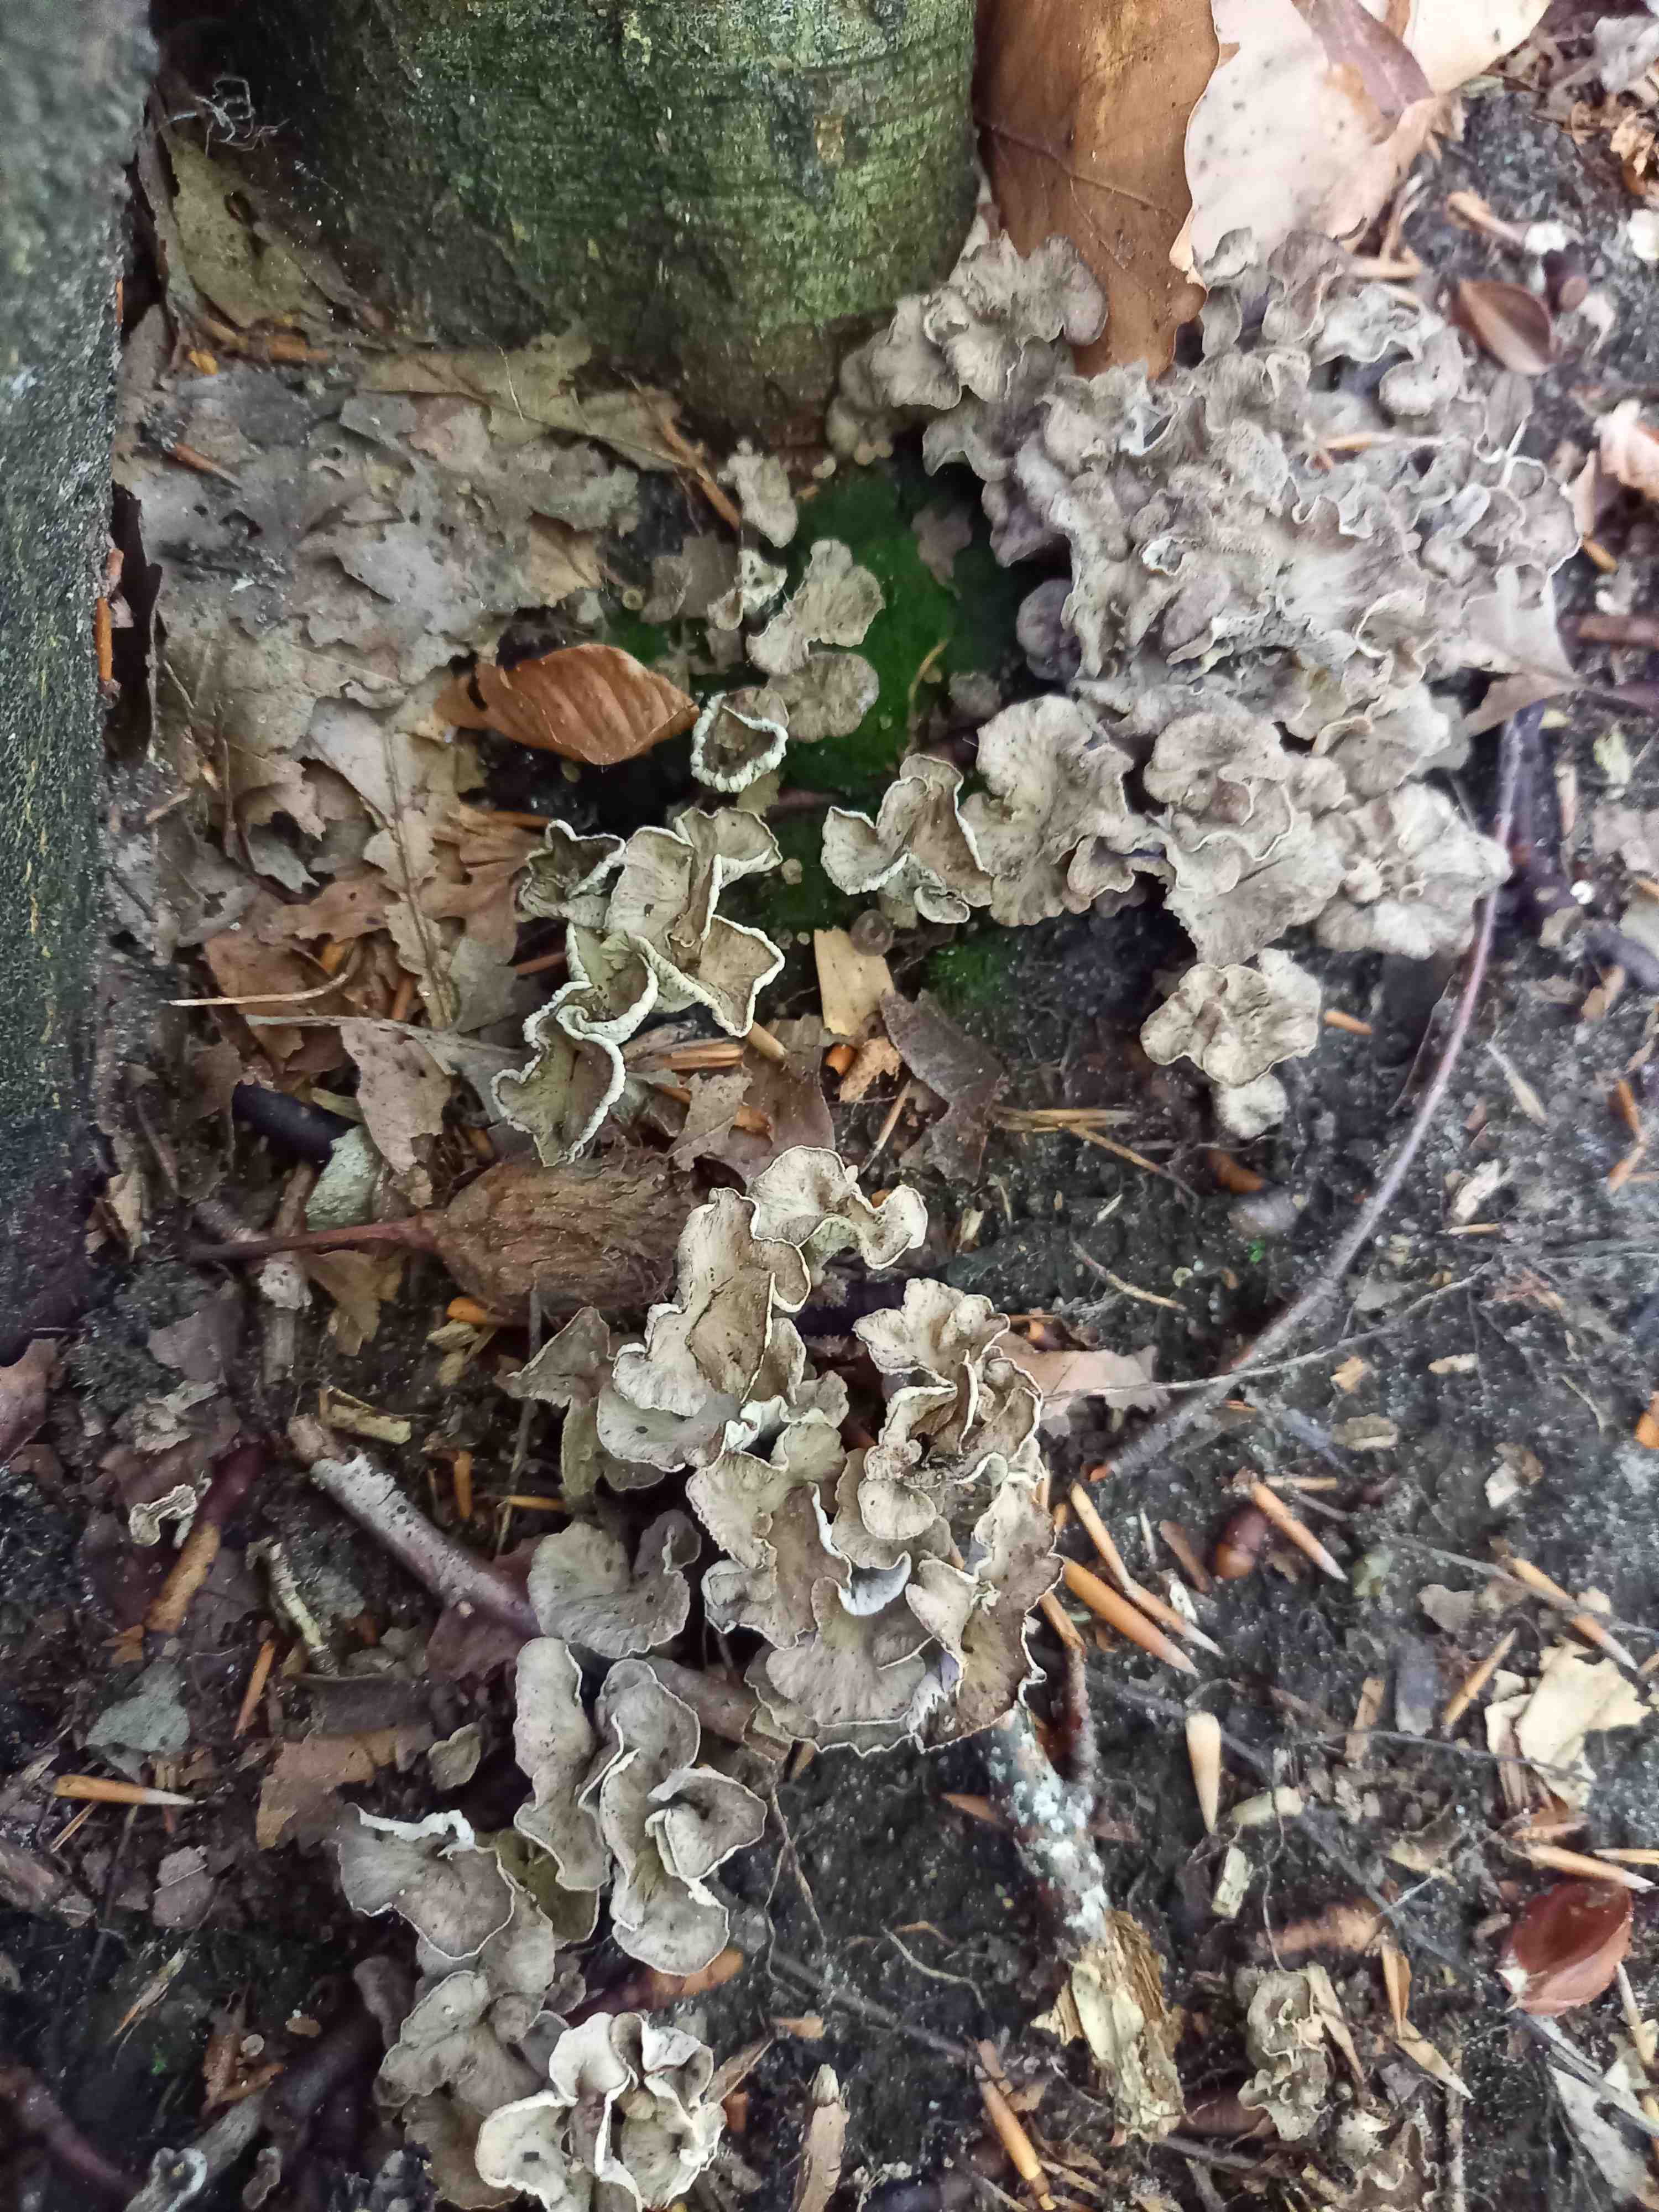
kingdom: Fungi
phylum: Basidiomycota
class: Agaricomycetes
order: Cantharellales
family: Hydnaceae
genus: Craterellus
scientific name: Craterellus undulatus
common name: liden kantarel
